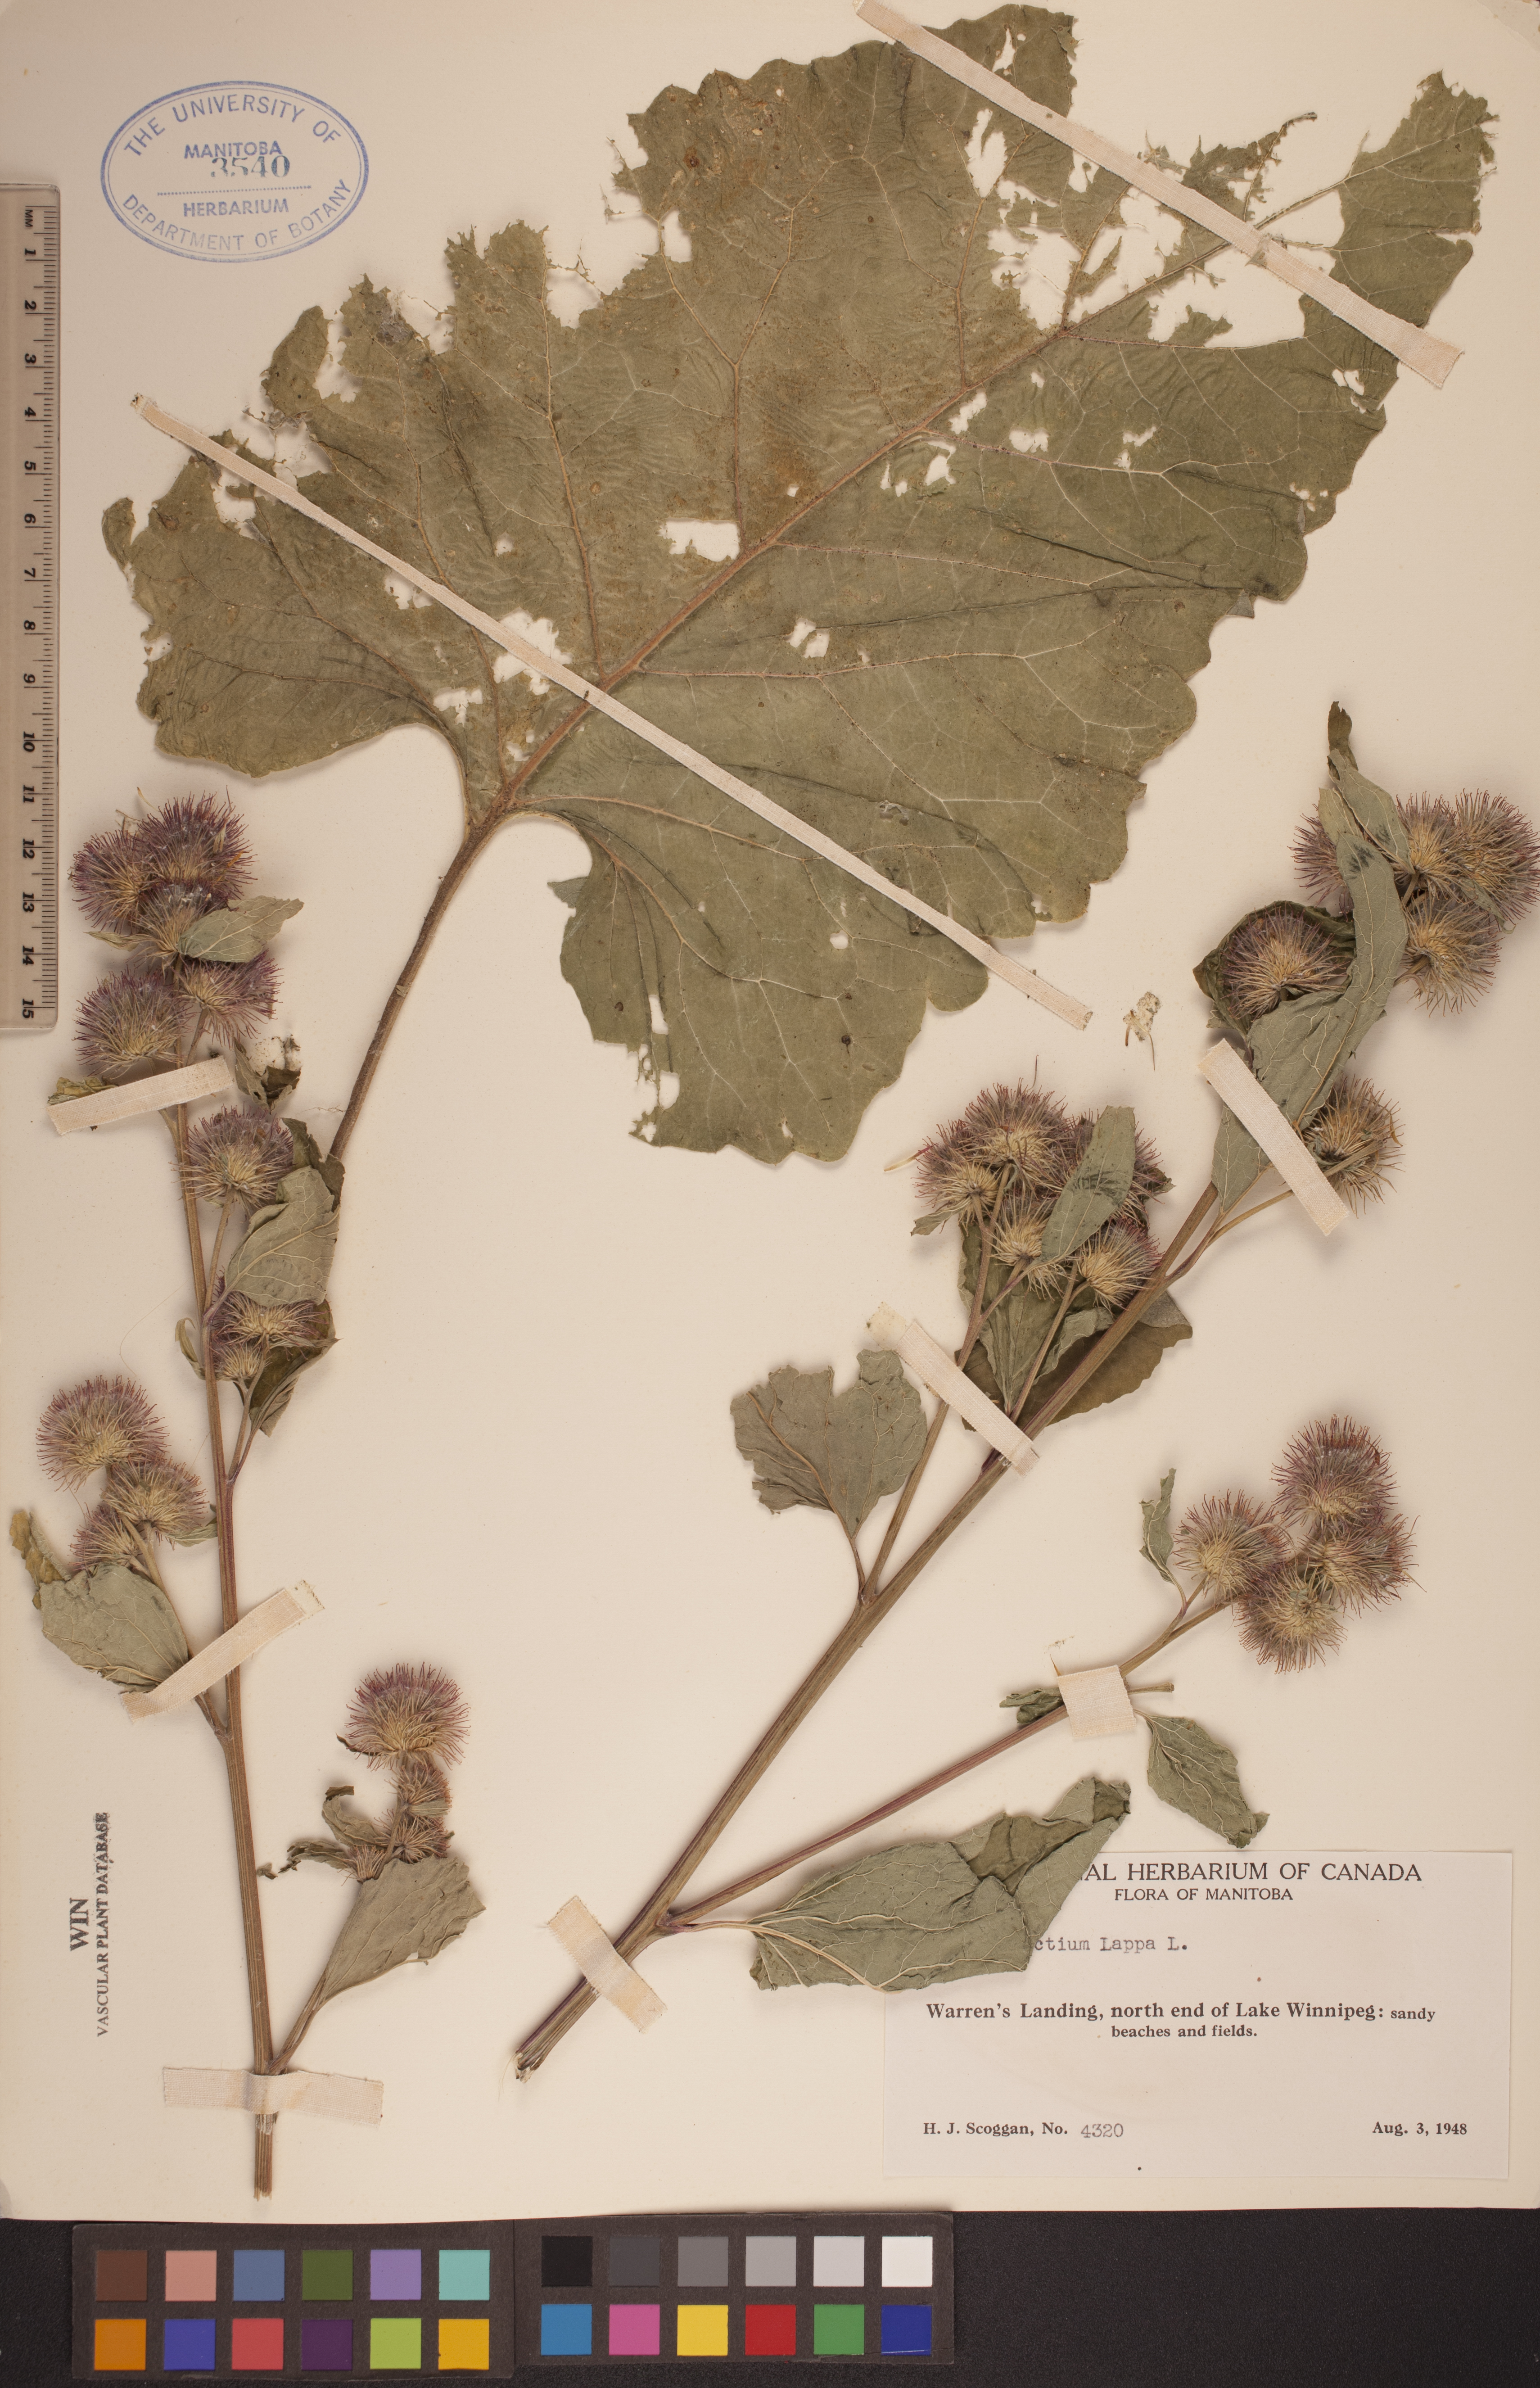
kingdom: Plantae
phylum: Tracheophyta
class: Magnoliopsida
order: Asterales
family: Asteraceae
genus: Arctium
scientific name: Arctium lappa
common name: Greater burdock
